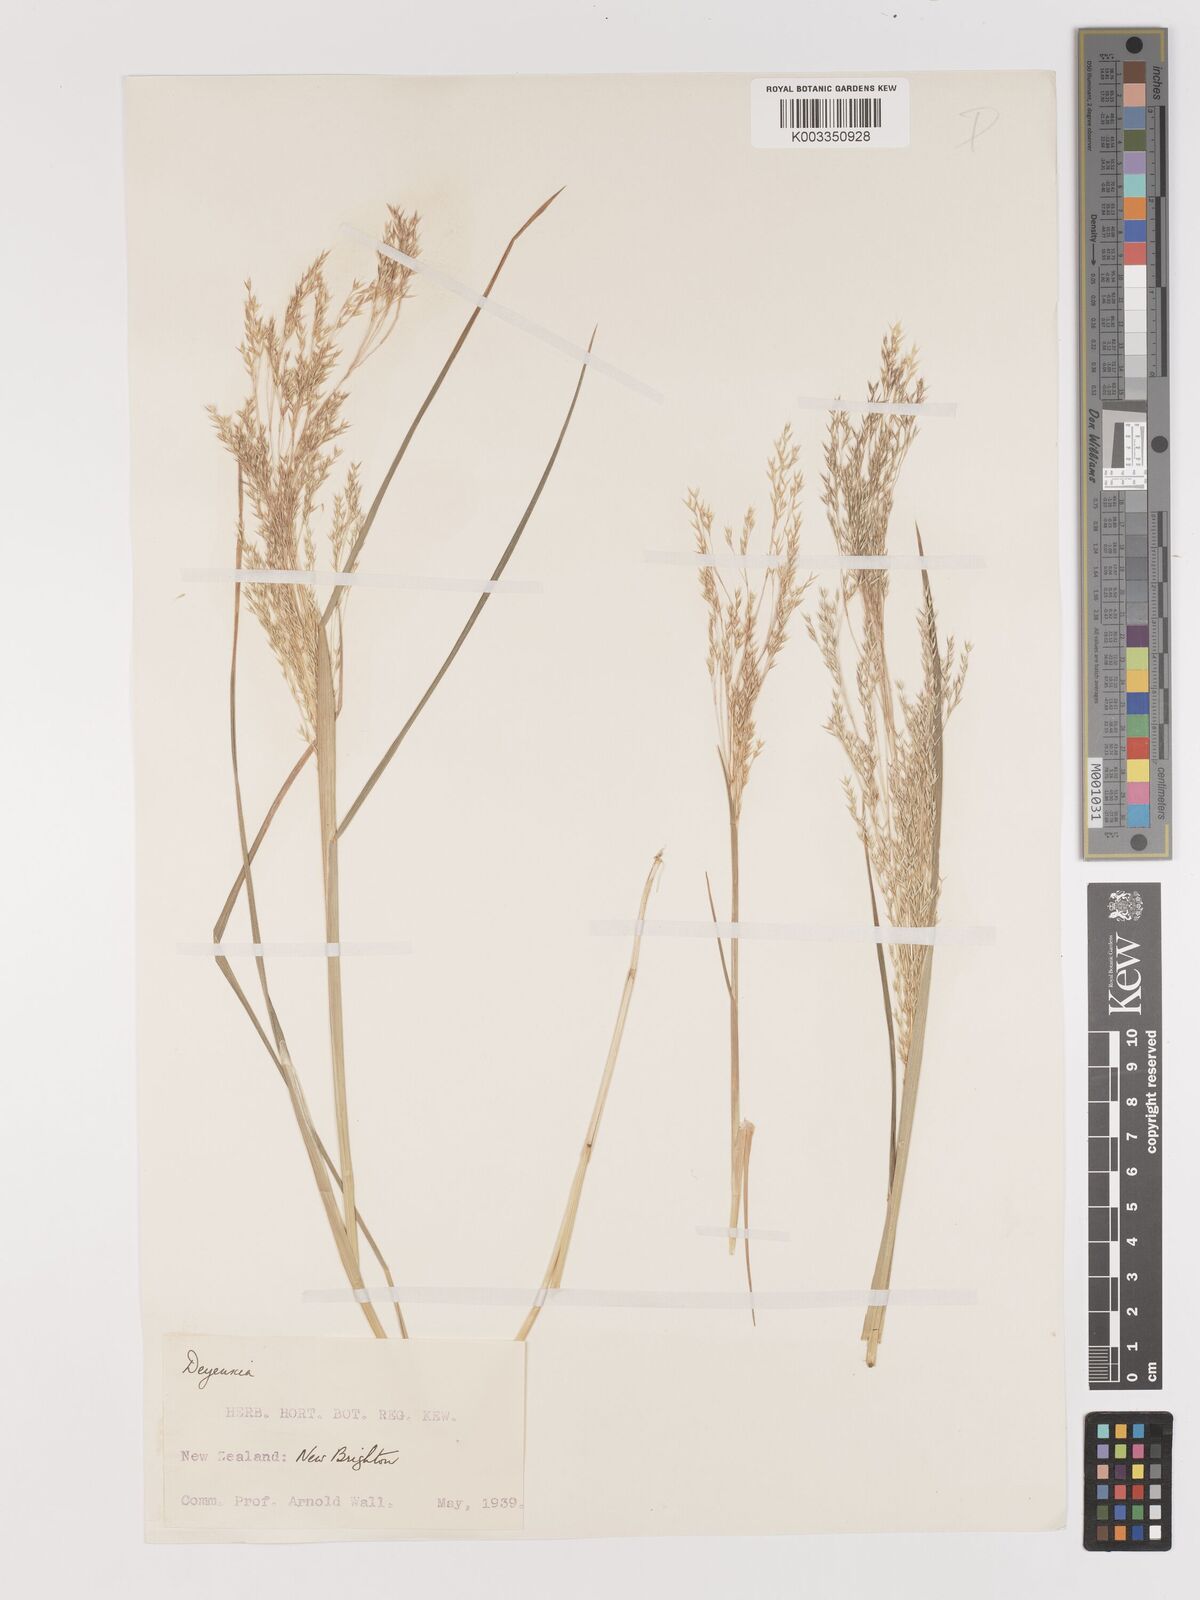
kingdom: Plantae
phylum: Tracheophyta
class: Liliopsida
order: Poales
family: Poaceae
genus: Lachnagrostis
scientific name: Lachnagrostis
